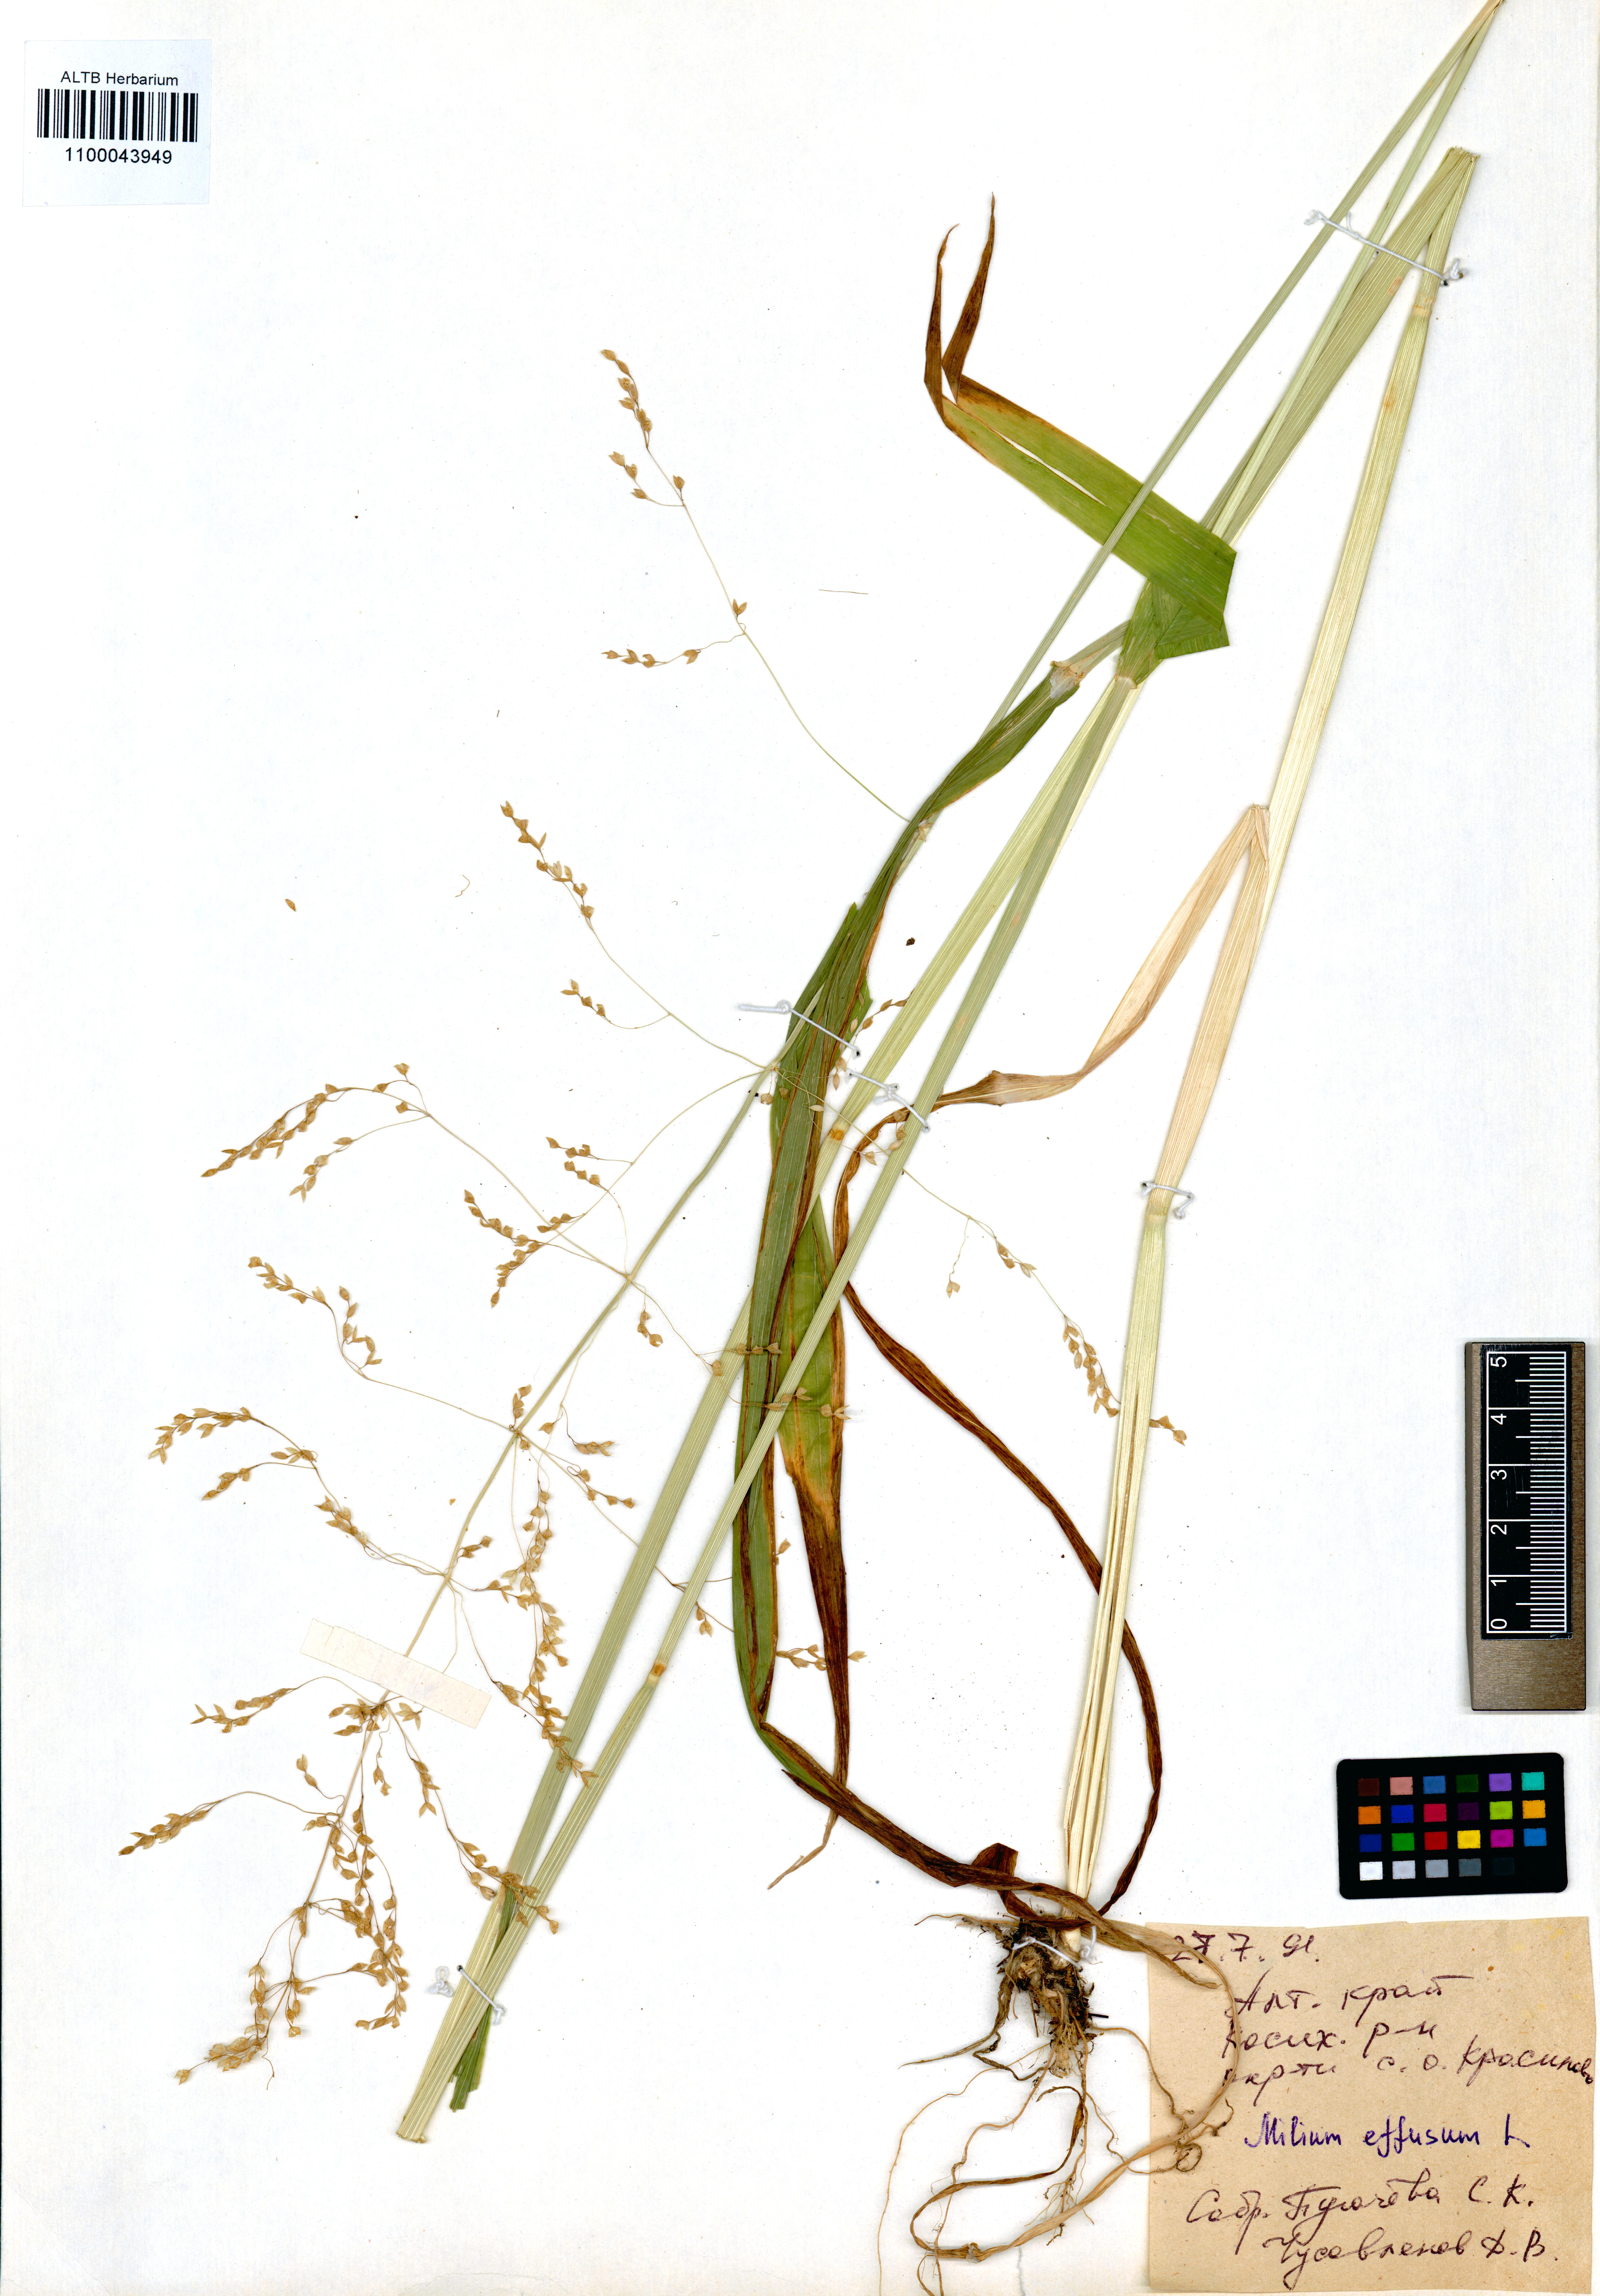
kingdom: Plantae
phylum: Tracheophyta
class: Liliopsida
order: Poales
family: Poaceae
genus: Milium
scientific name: Milium effusum
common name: Wood millet
